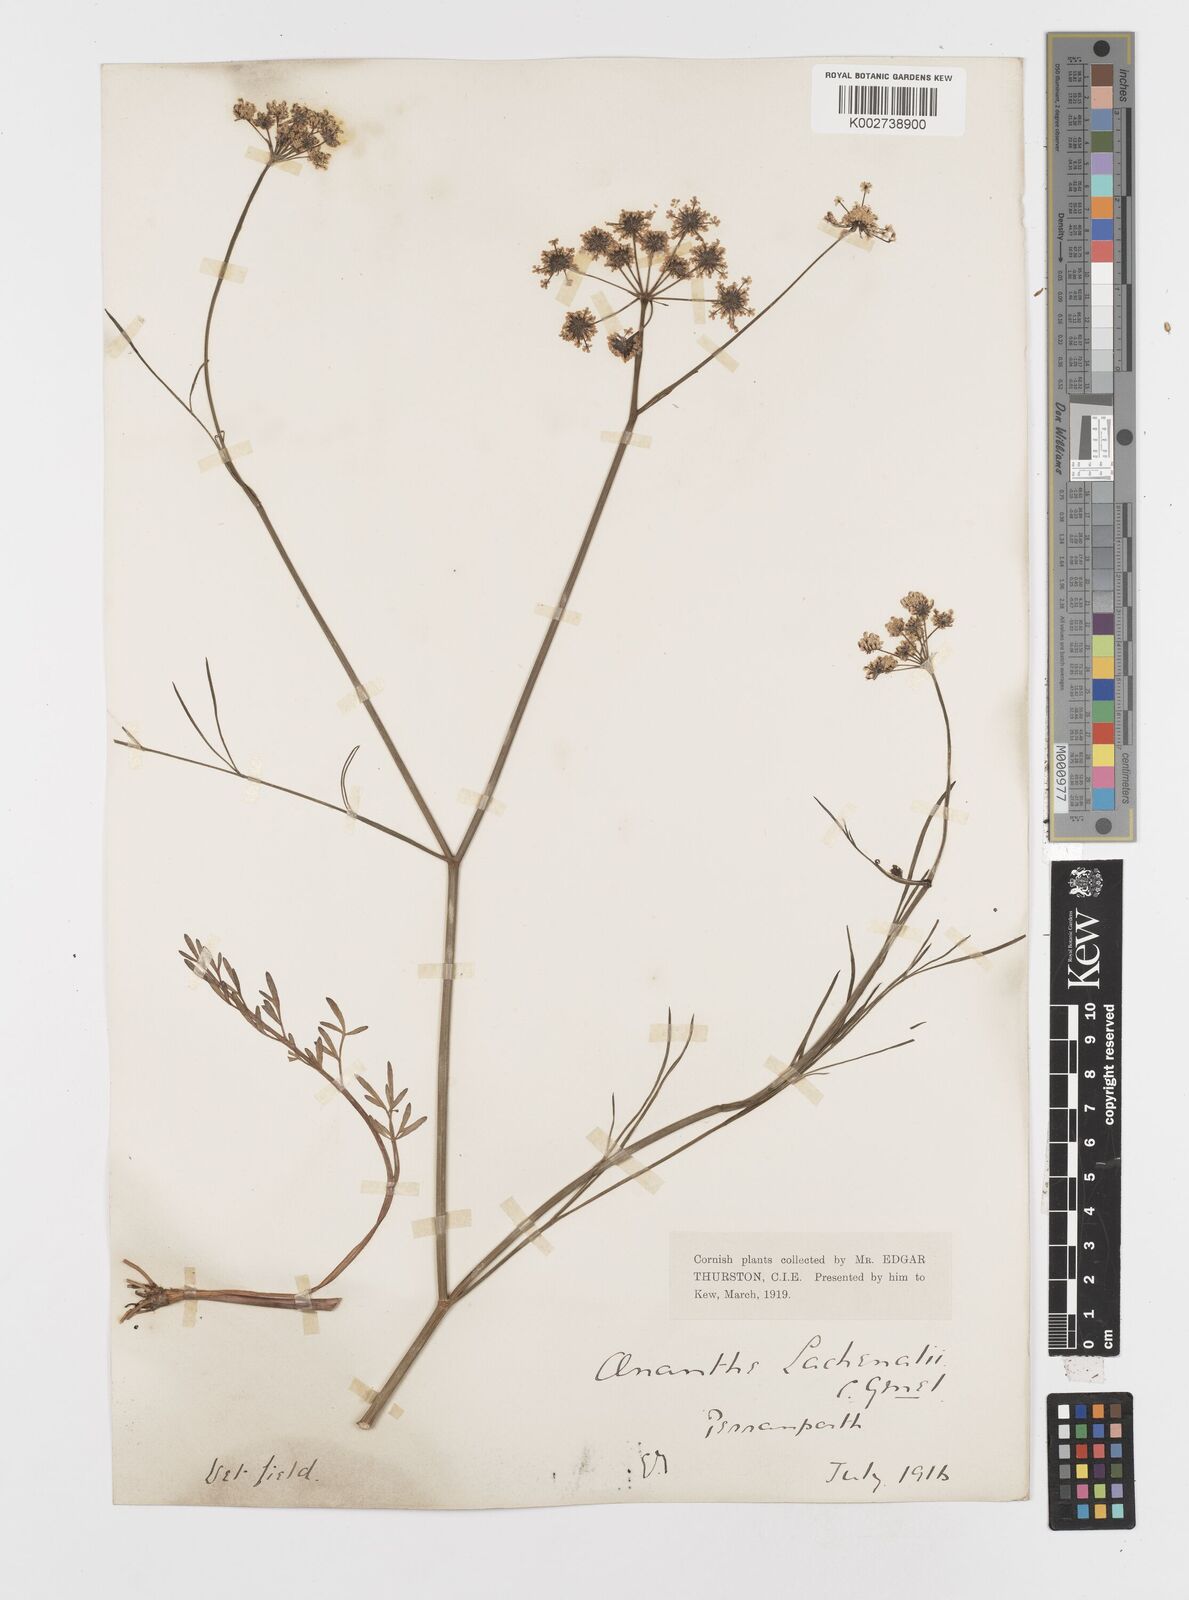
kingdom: Plantae
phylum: Tracheophyta
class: Magnoliopsida
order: Apiales
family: Apiaceae
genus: Oenanthe
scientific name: Oenanthe lachenalii
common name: Parsley water-dropwort
